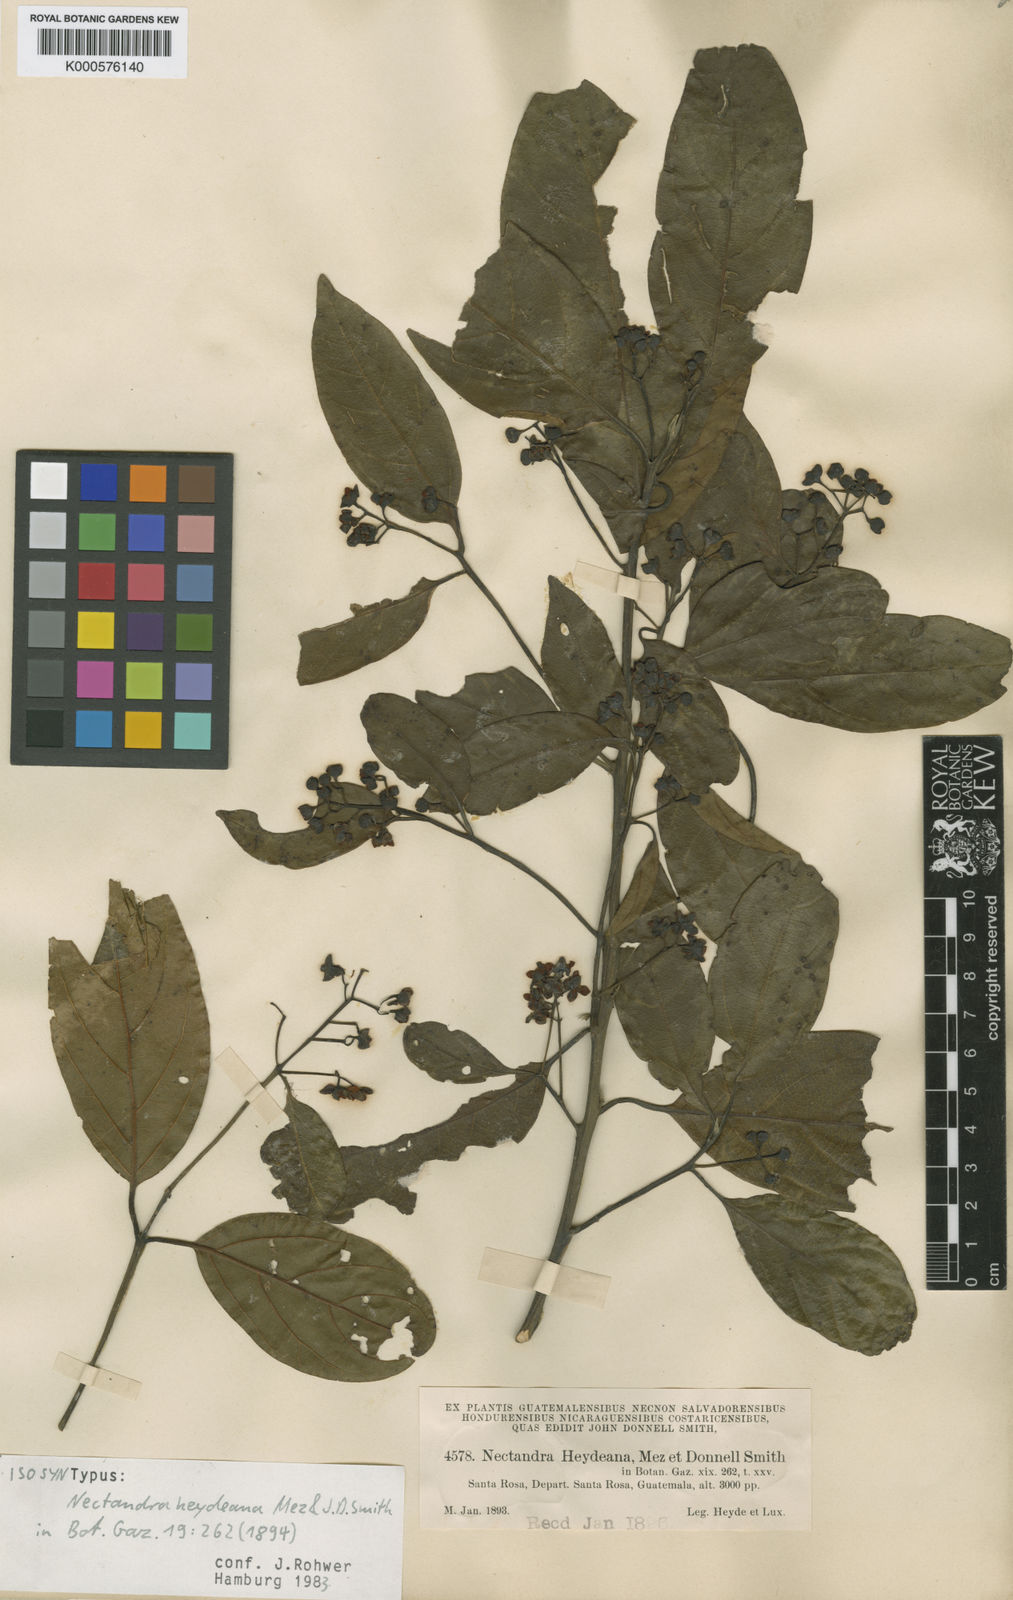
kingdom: Plantae
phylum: Tracheophyta
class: Magnoliopsida
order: Laurales
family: Lauraceae
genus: Ocotea
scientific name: Ocotea heydeana
